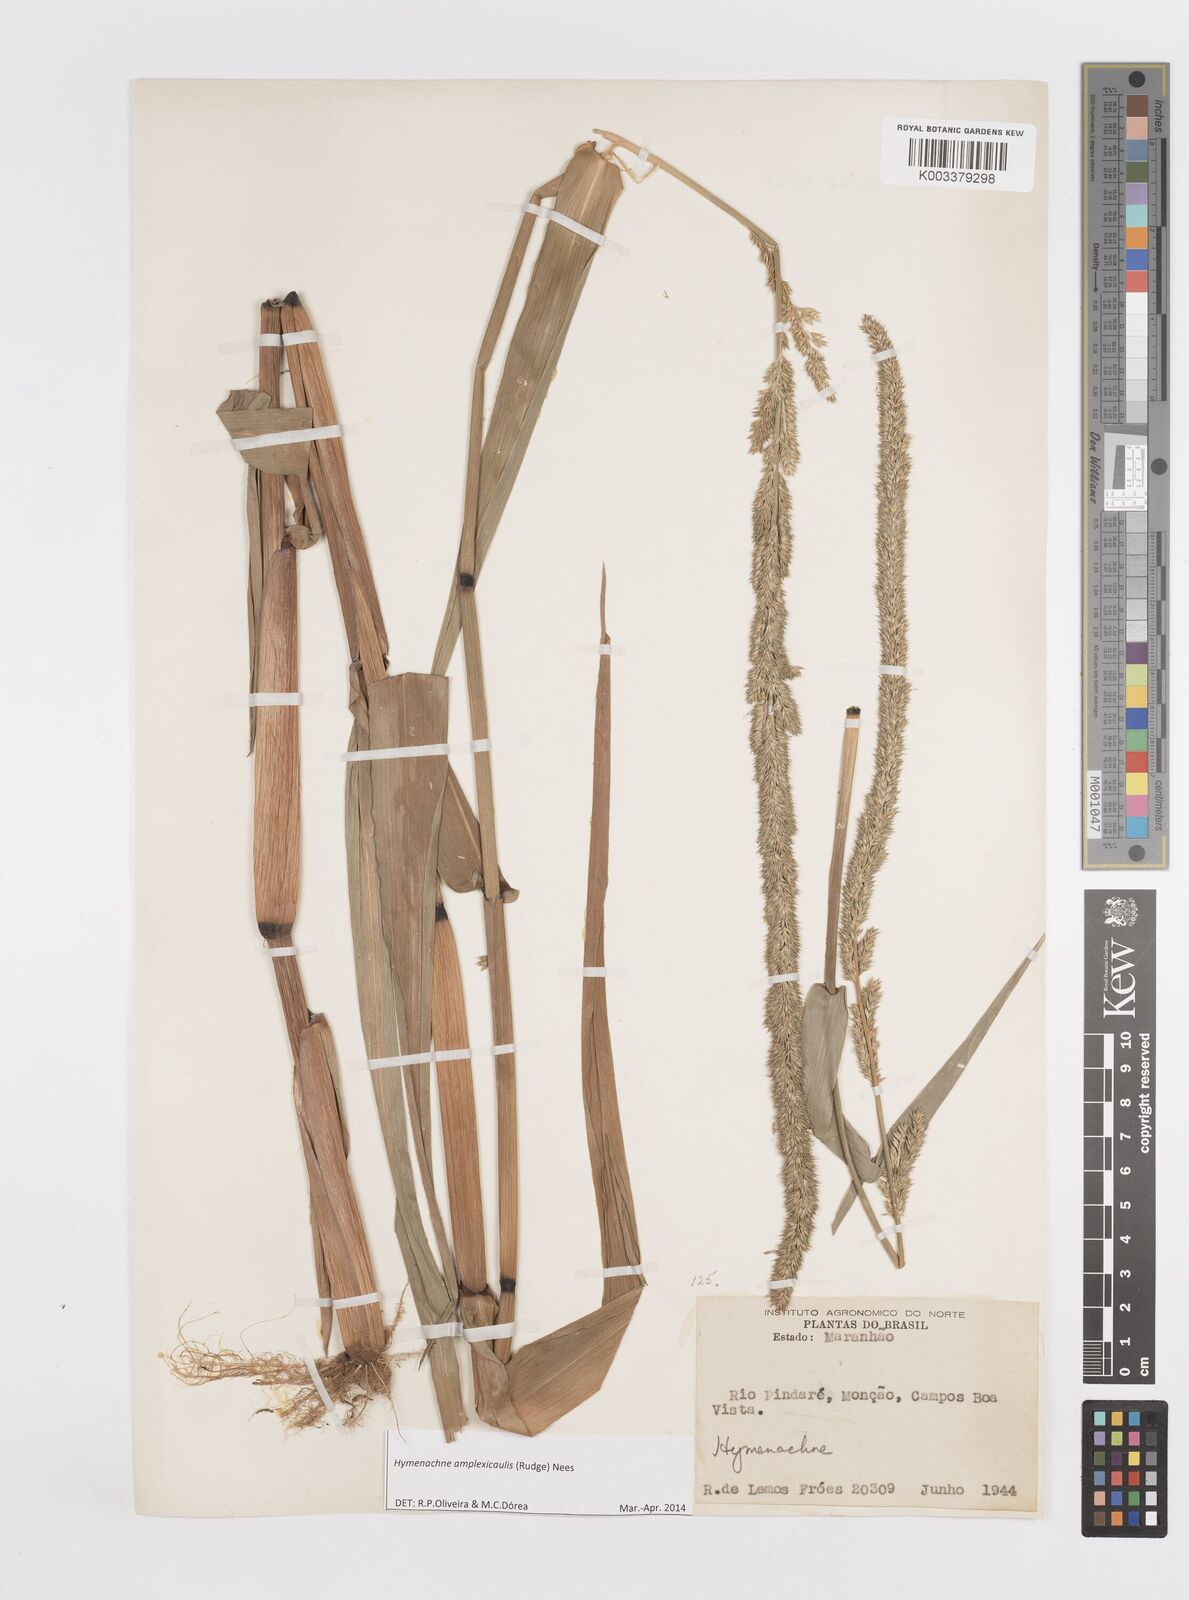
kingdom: Plantae
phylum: Tracheophyta
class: Liliopsida
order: Poales
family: Poaceae
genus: Hymenachne
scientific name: Hymenachne amplexicaulis
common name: Olive hymenachne
